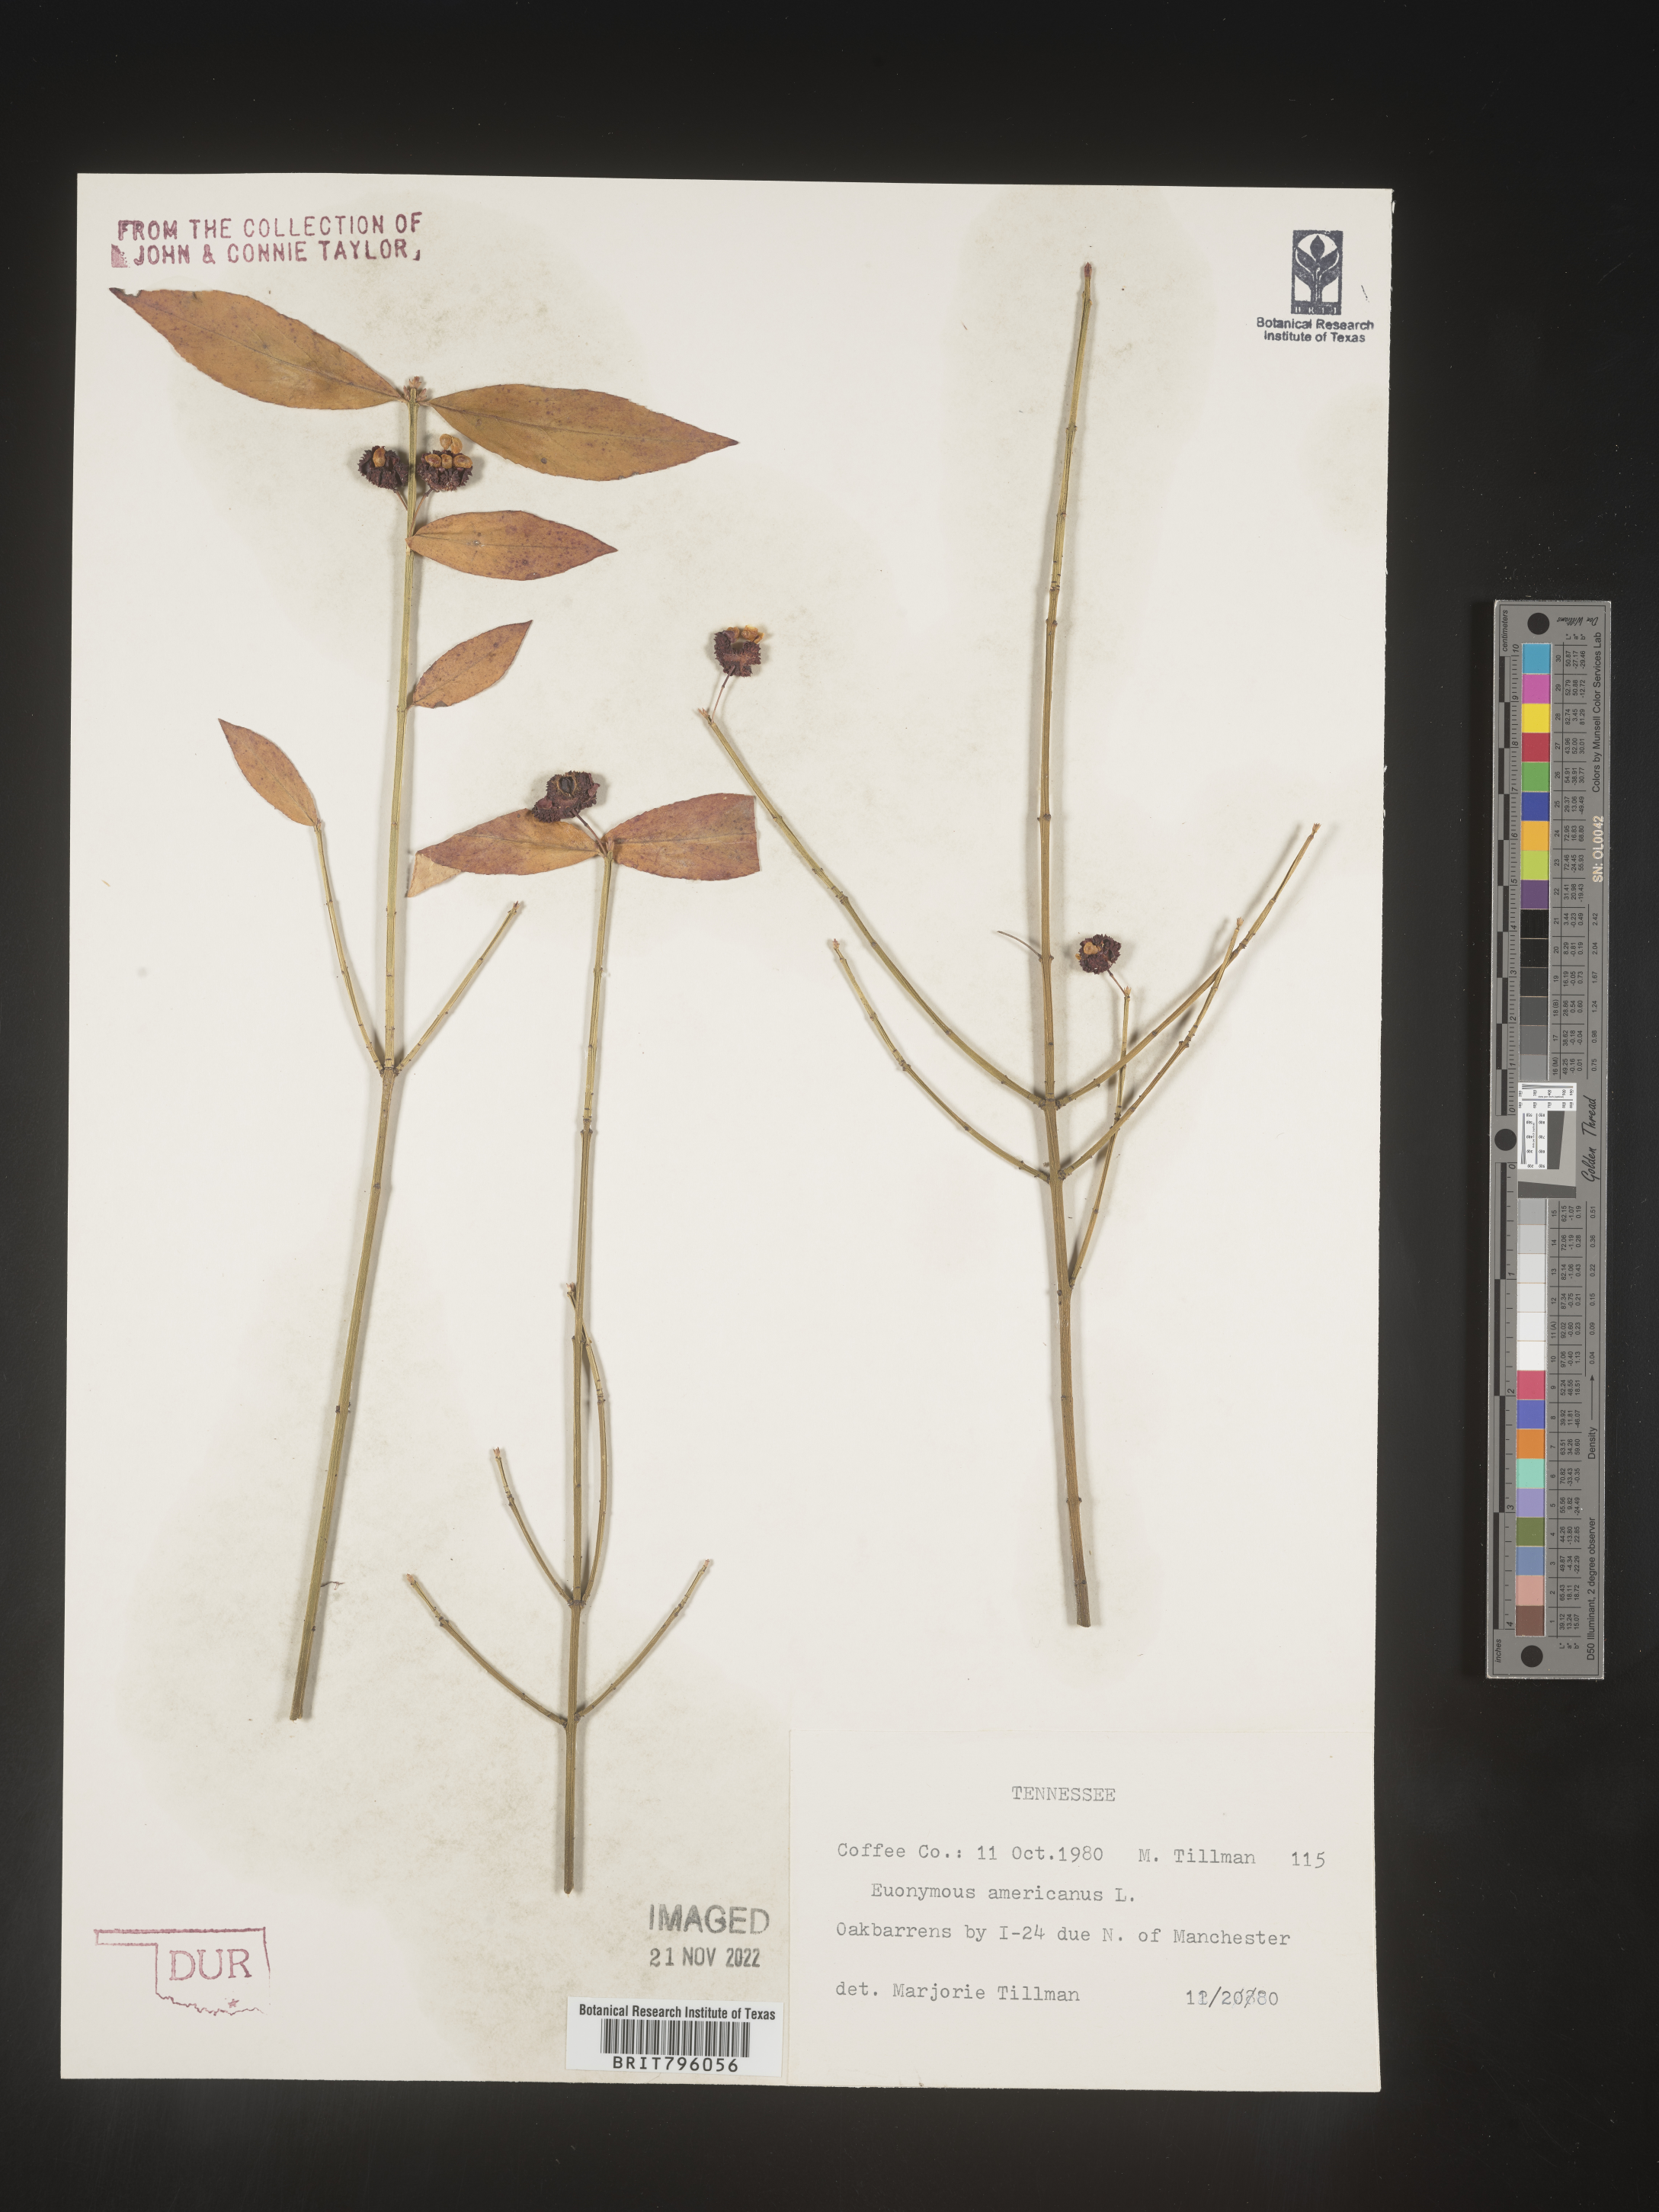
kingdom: Plantae
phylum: Tracheophyta
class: Magnoliopsida
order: Celastrales
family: Celastraceae
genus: Euonymus
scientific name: Euonymus americanus
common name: Bursting-heart
